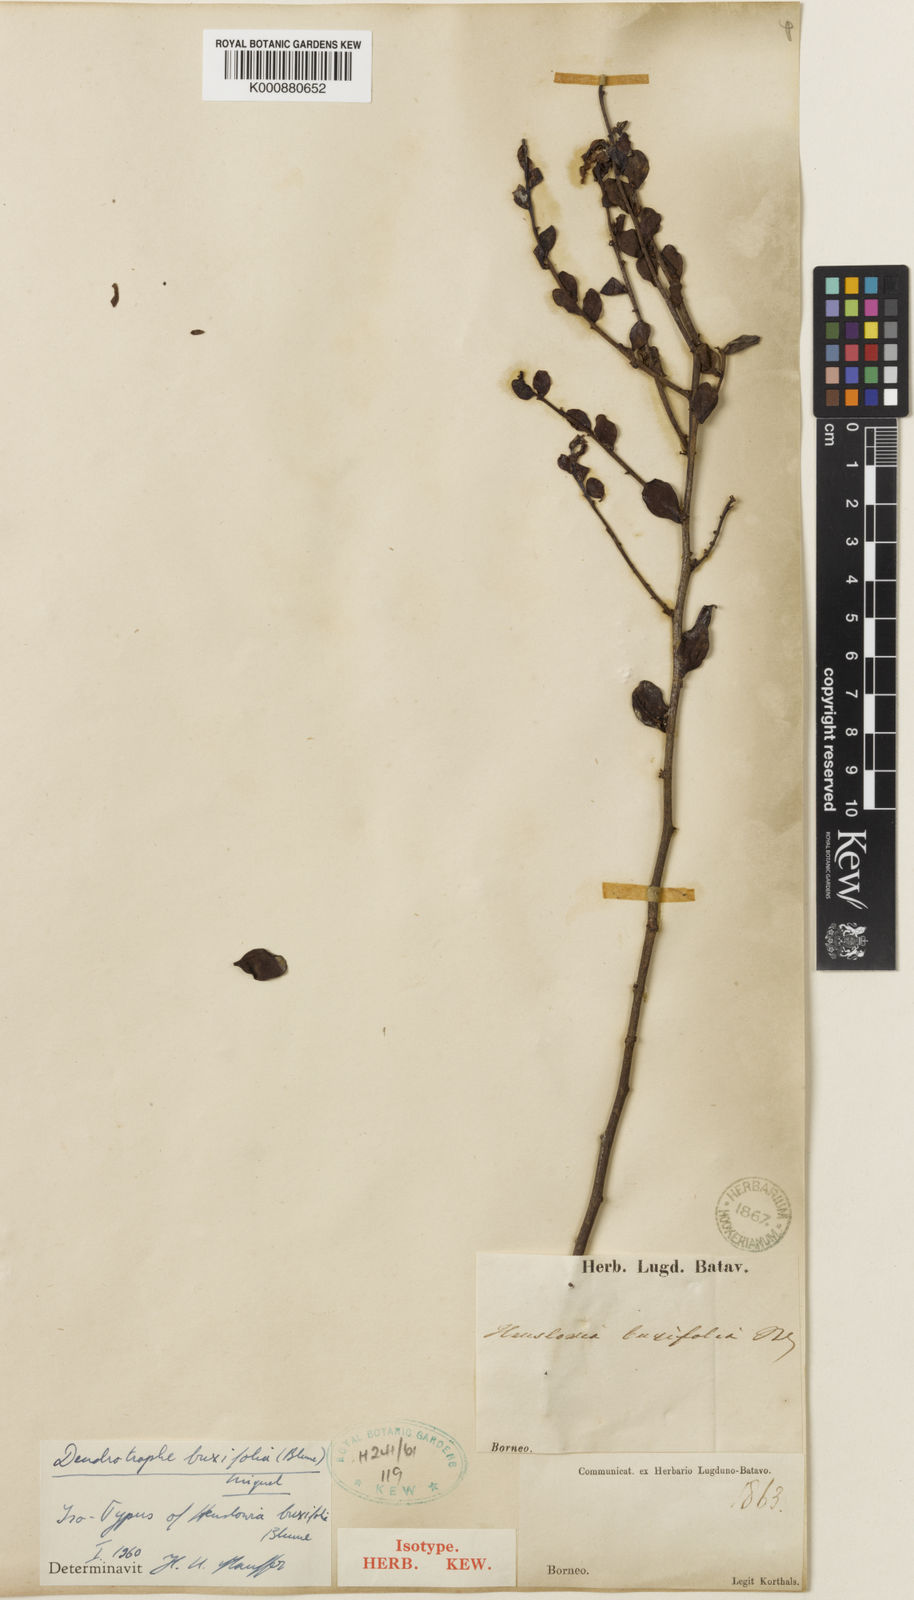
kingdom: Plantae
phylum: Tracheophyta
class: Magnoliopsida
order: Santalales
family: Amphorogynaceae
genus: Dendrotrophe
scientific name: Dendrotrophe buxifolia
